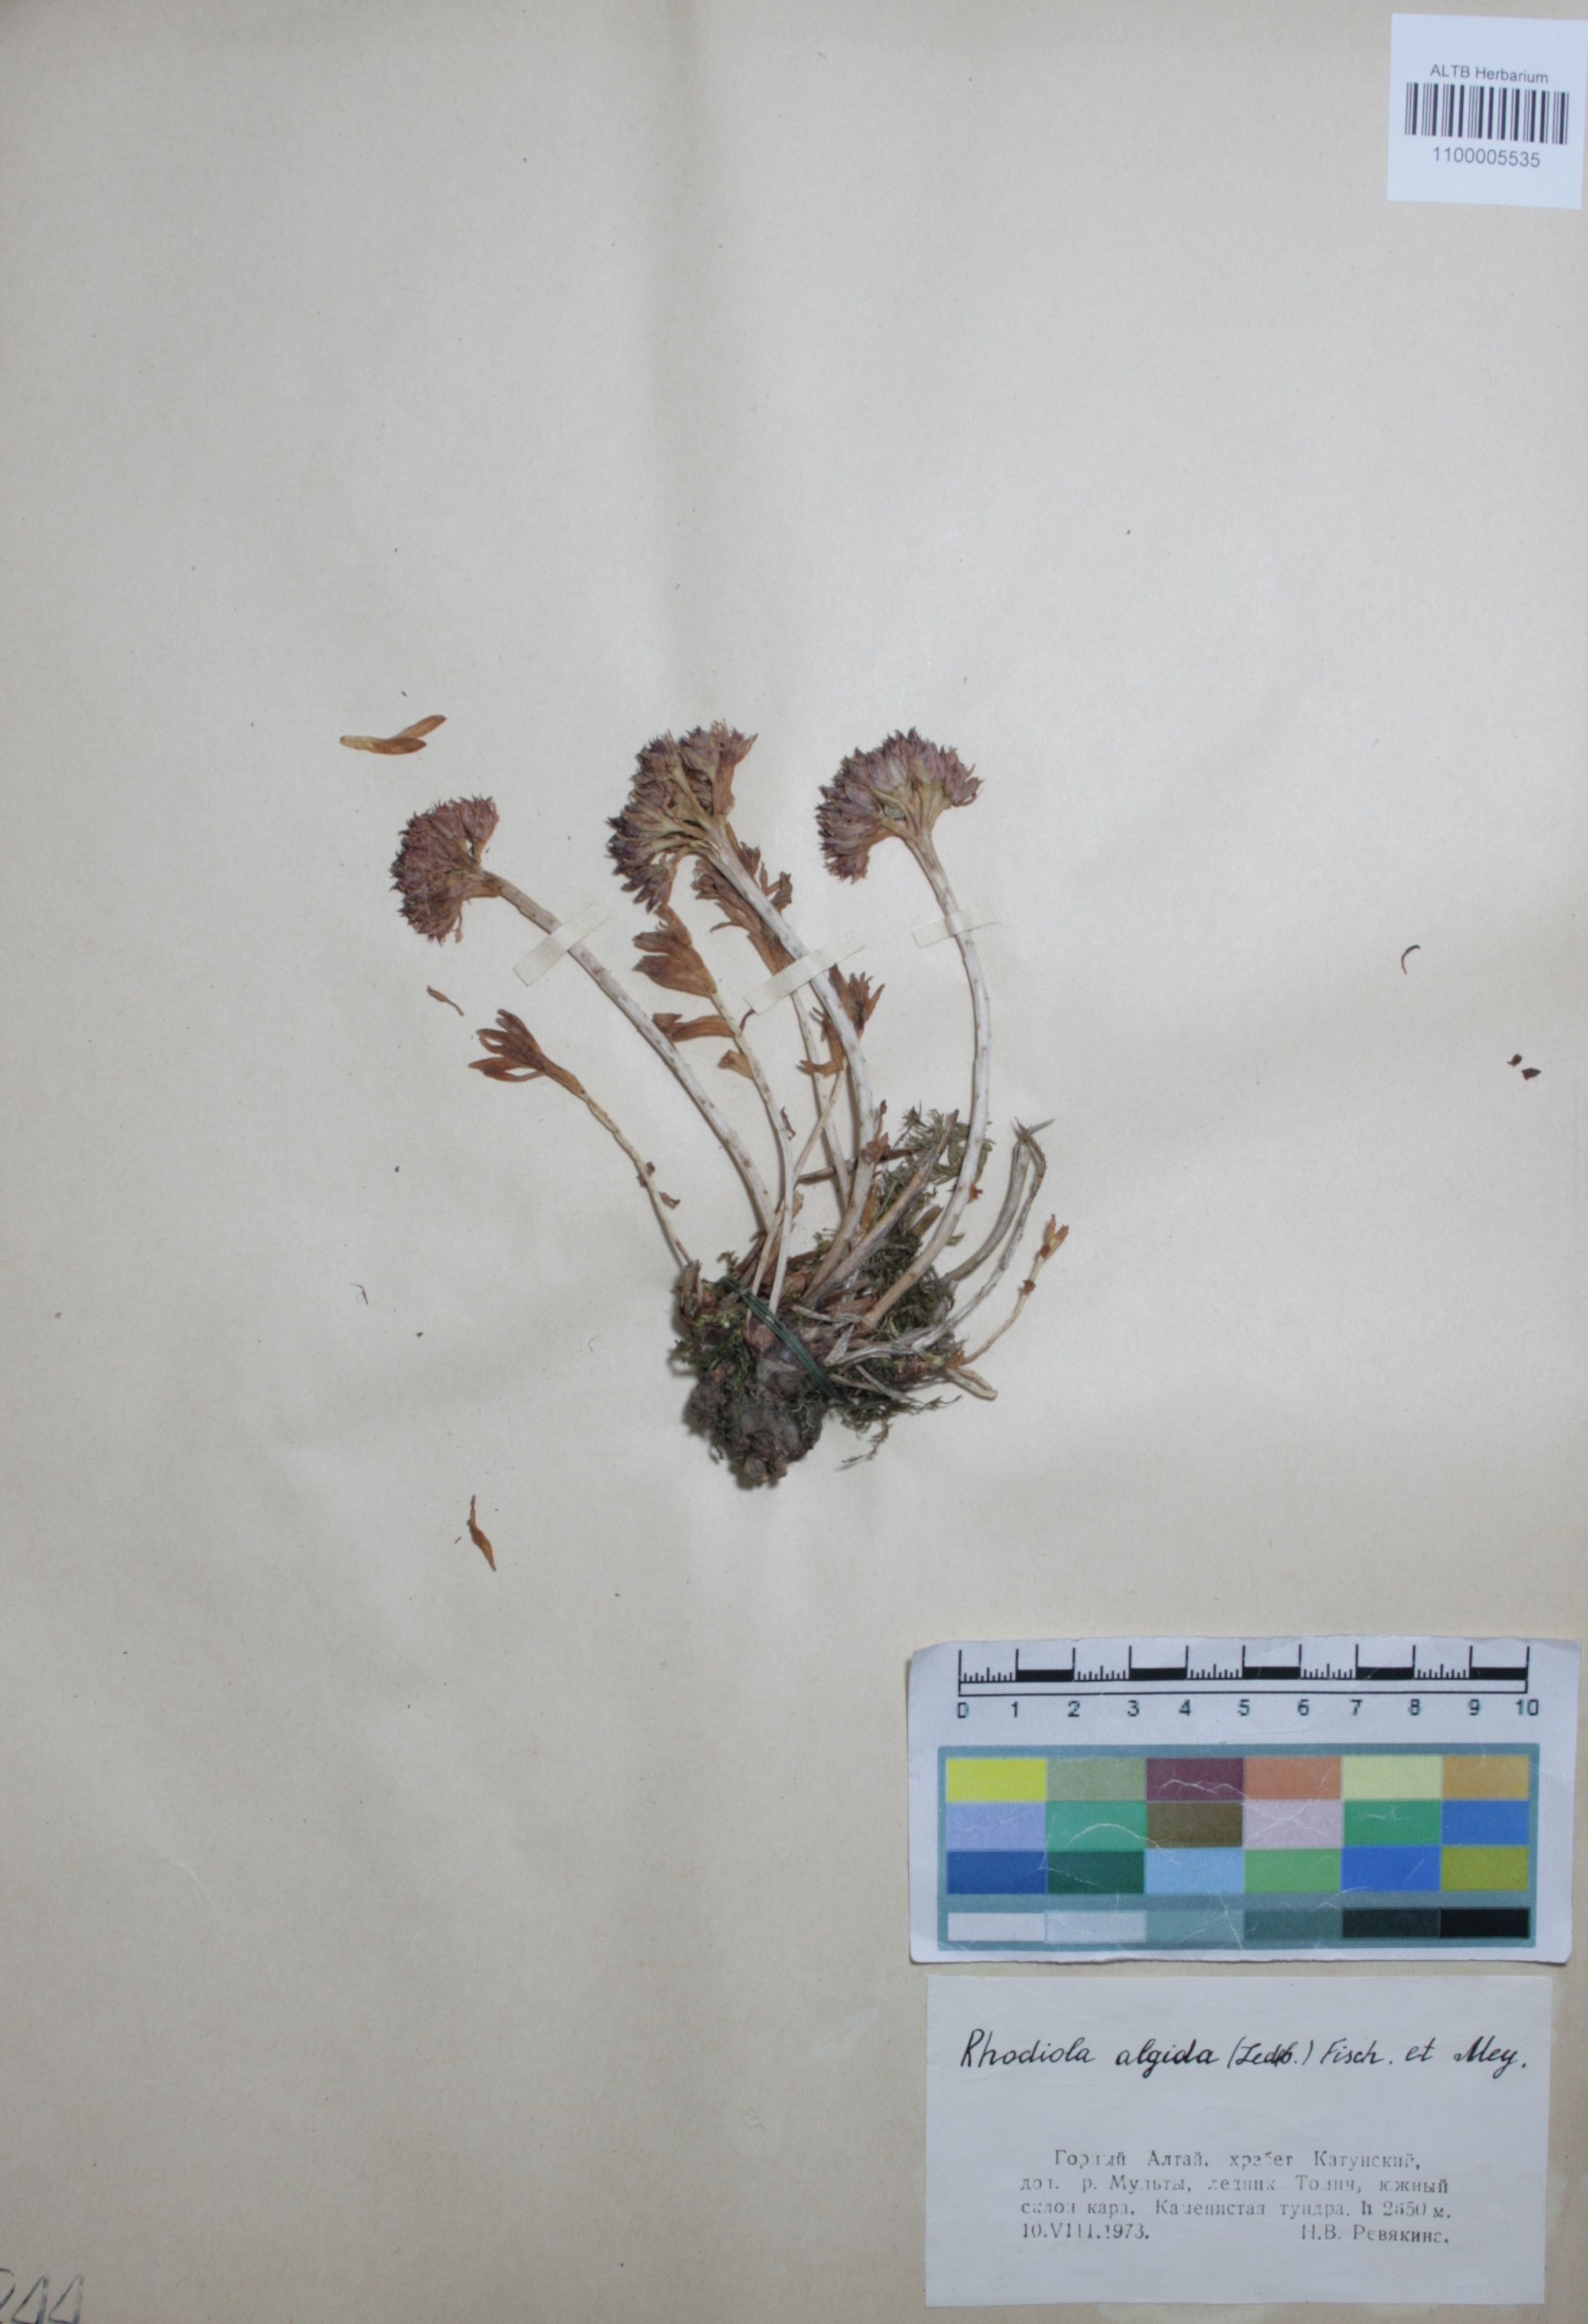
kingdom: Plantae
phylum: Tracheophyta
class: Magnoliopsida
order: Saxifragales
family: Crassulaceae
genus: Rhodiola
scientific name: Rhodiola algida
